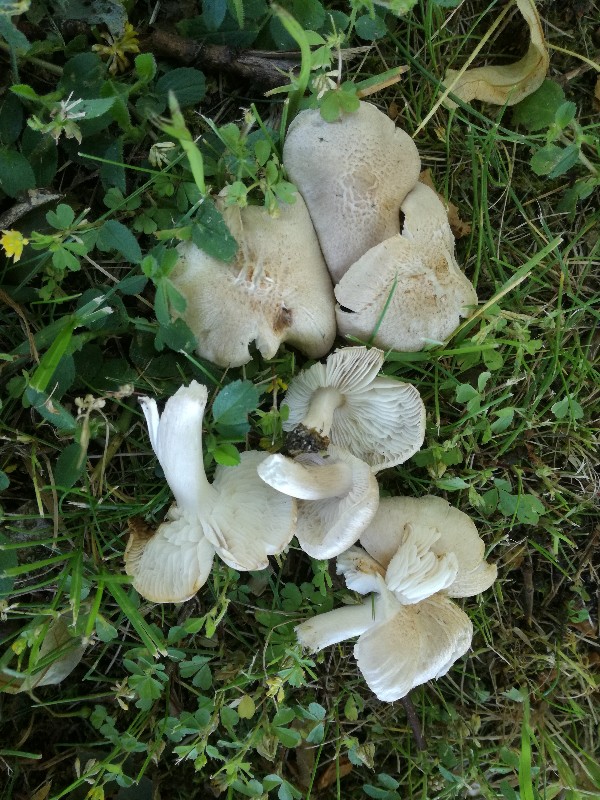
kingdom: Fungi
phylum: Basidiomycota
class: Agaricomycetes
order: Agaricales
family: Tricholomataceae
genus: Tricholoma
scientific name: Tricholoma argyraceum
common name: spids ridderhat
